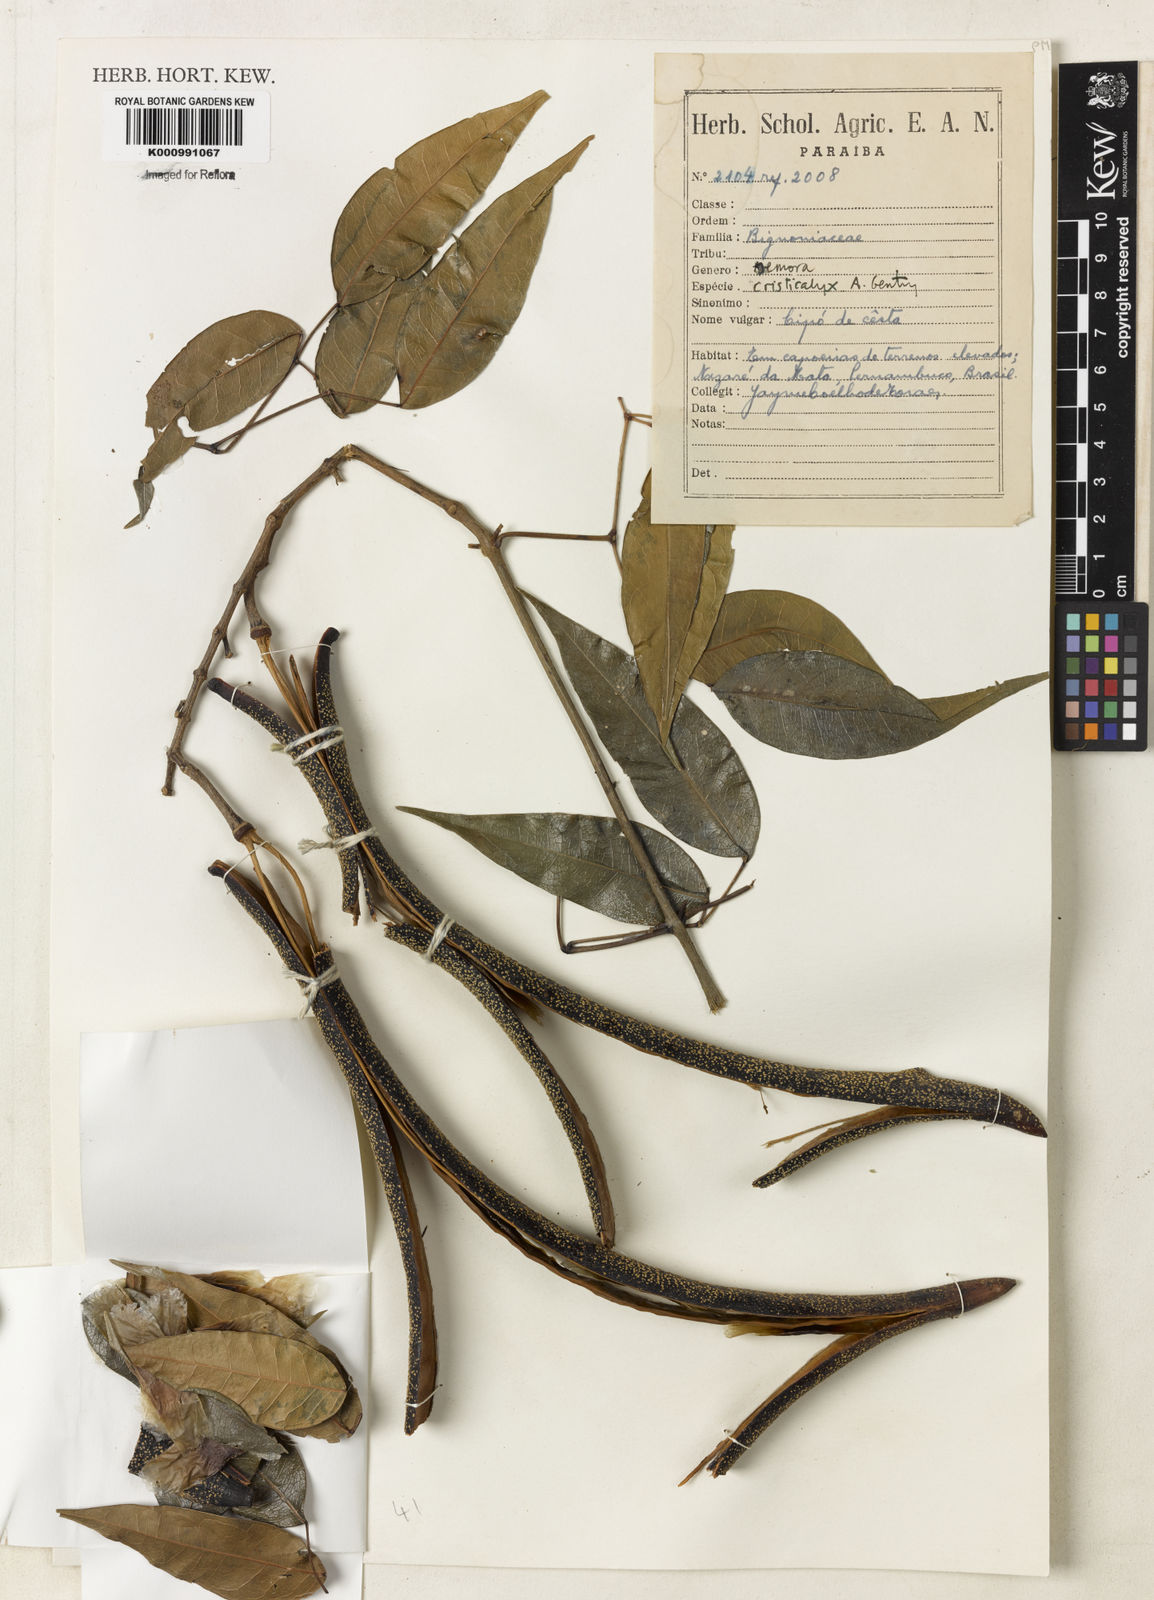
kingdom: Plantae
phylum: Tracheophyta
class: Magnoliopsida
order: Lamiales
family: Bignoniaceae
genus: Adenocalymma
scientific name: Adenocalymma cristicalyx
